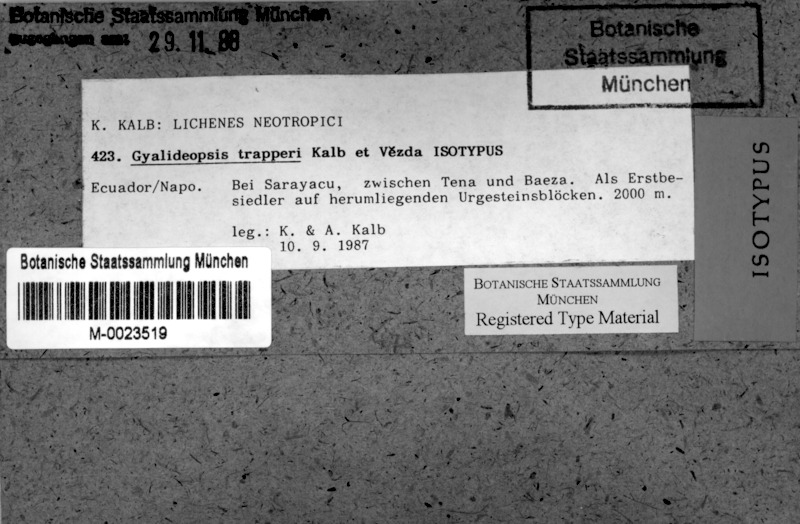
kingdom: Fungi
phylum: Ascomycota
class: Lecanoromycetes
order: Ostropales
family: Gomphillaceae
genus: Diploschistella
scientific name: Diploschistella trapperi
